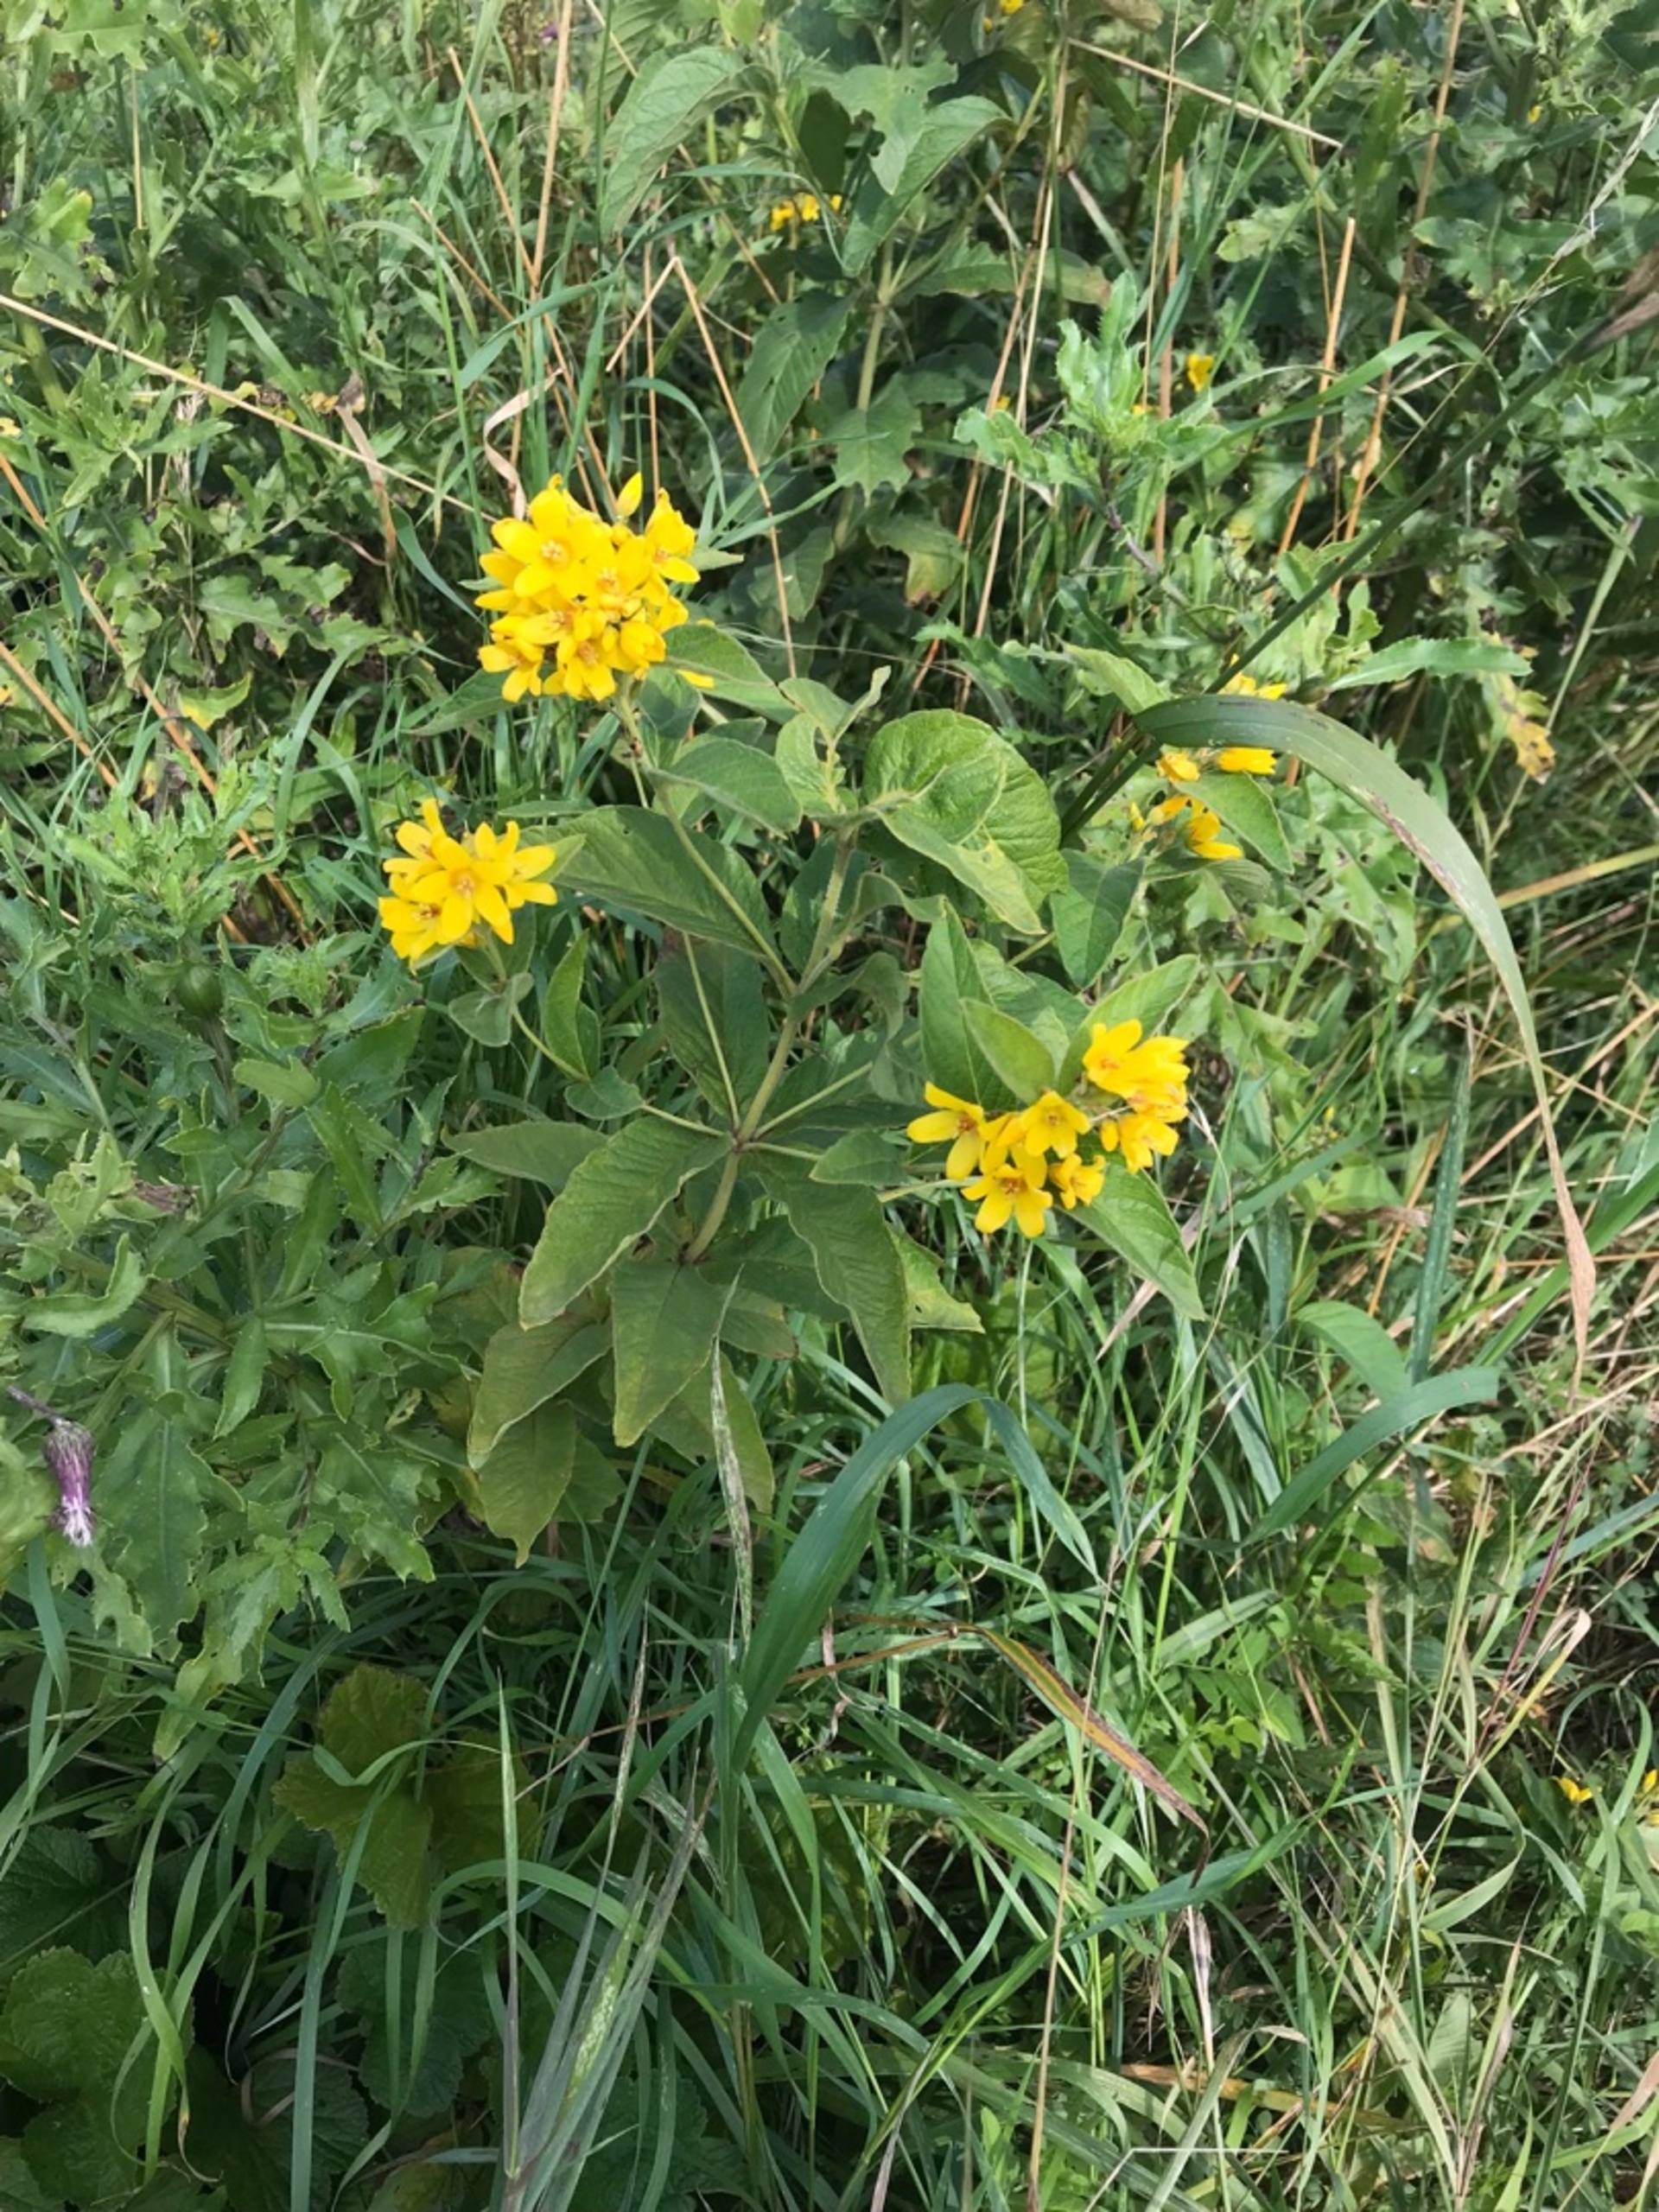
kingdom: Plantae
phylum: Tracheophyta
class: Magnoliopsida
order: Ericales
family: Primulaceae
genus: Lysimachia
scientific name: Lysimachia vulgaris
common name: Almindelig fredløs
